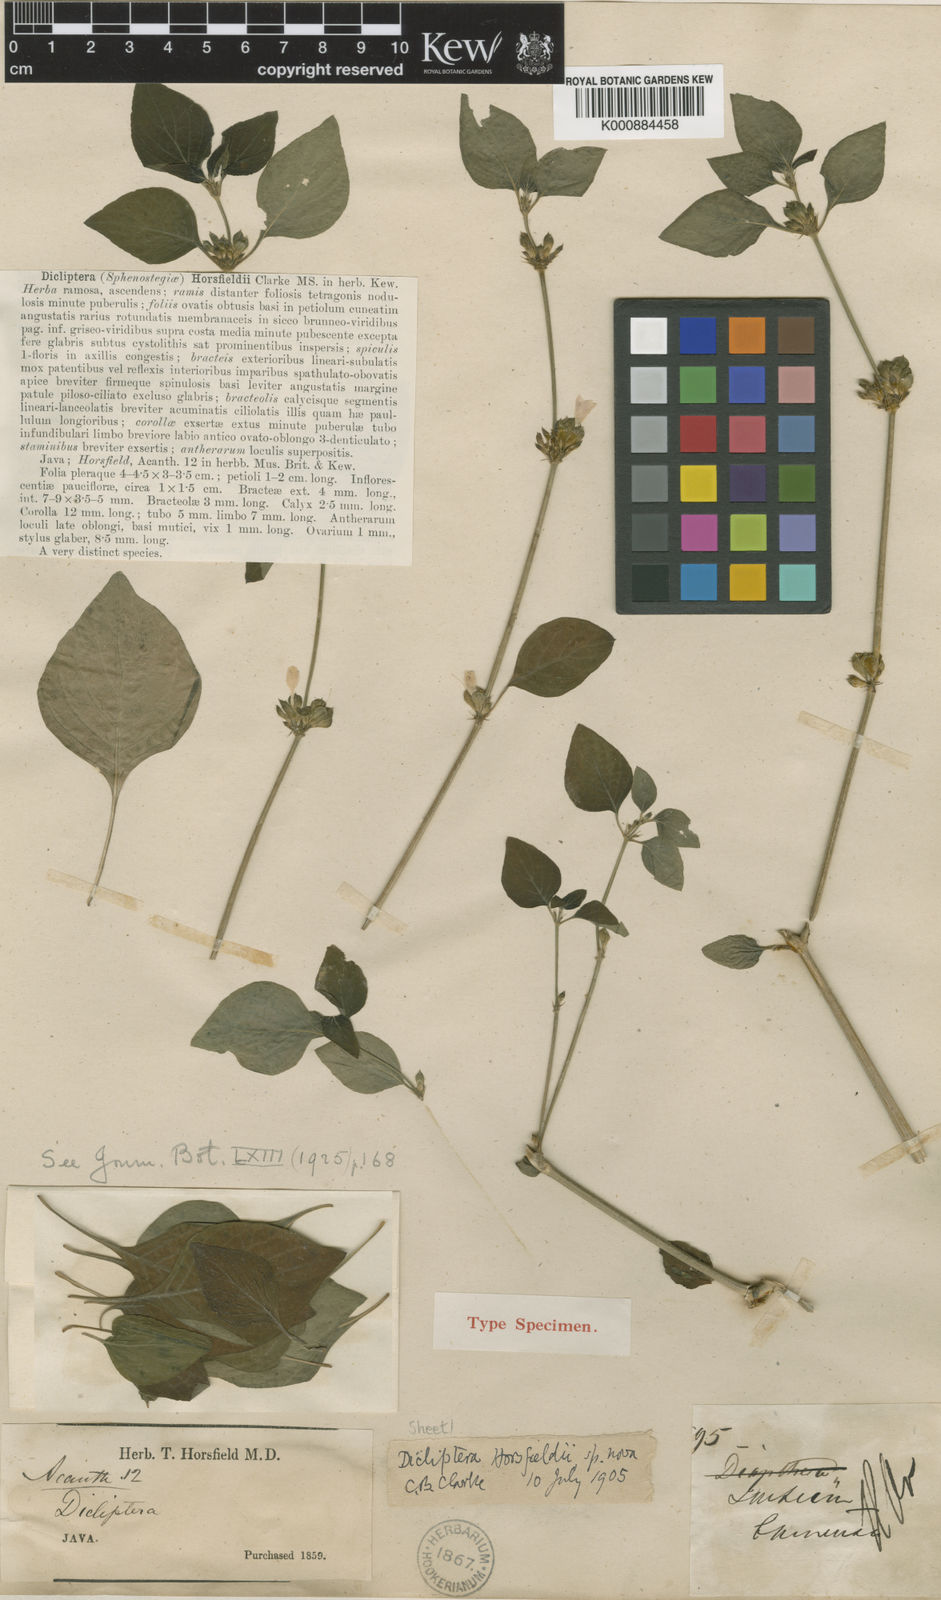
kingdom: Plantae
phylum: Tracheophyta
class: Magnoliopsida
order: Lamiales
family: Acanthaceae
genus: Dicliptera
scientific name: Dicliptera
